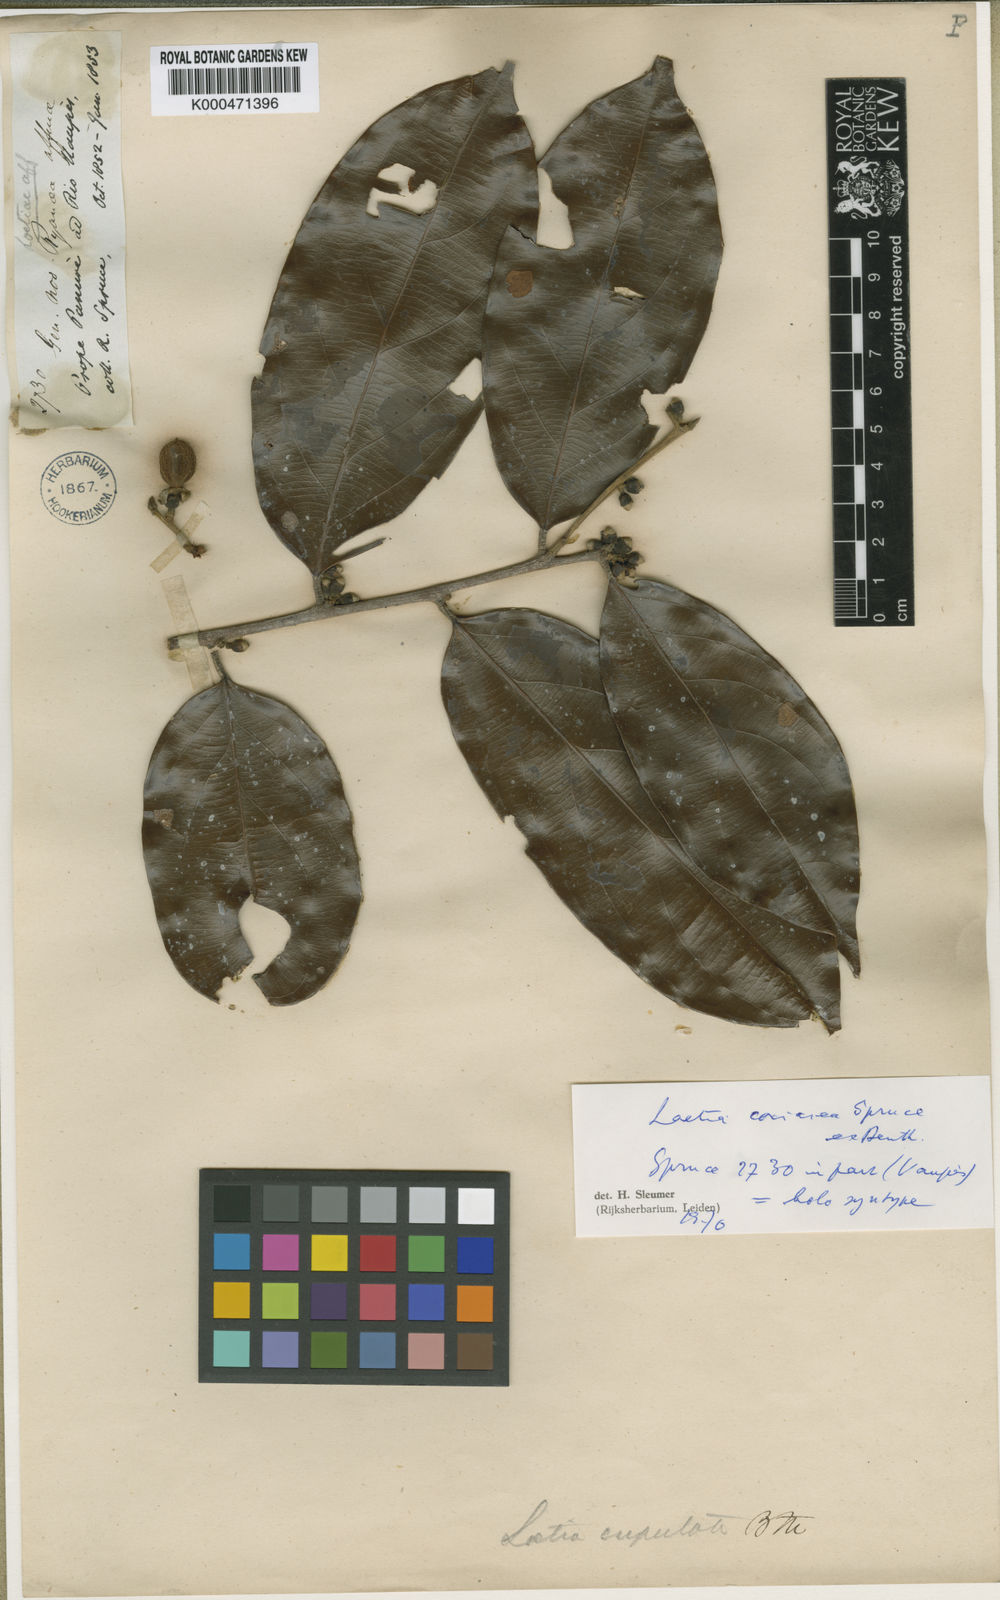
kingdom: Plantae
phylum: Tracheophyta
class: Magnoliopsida
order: Malpighiales
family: Salicaceae
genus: Irenodendron
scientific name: Irenodendron coriaceum
